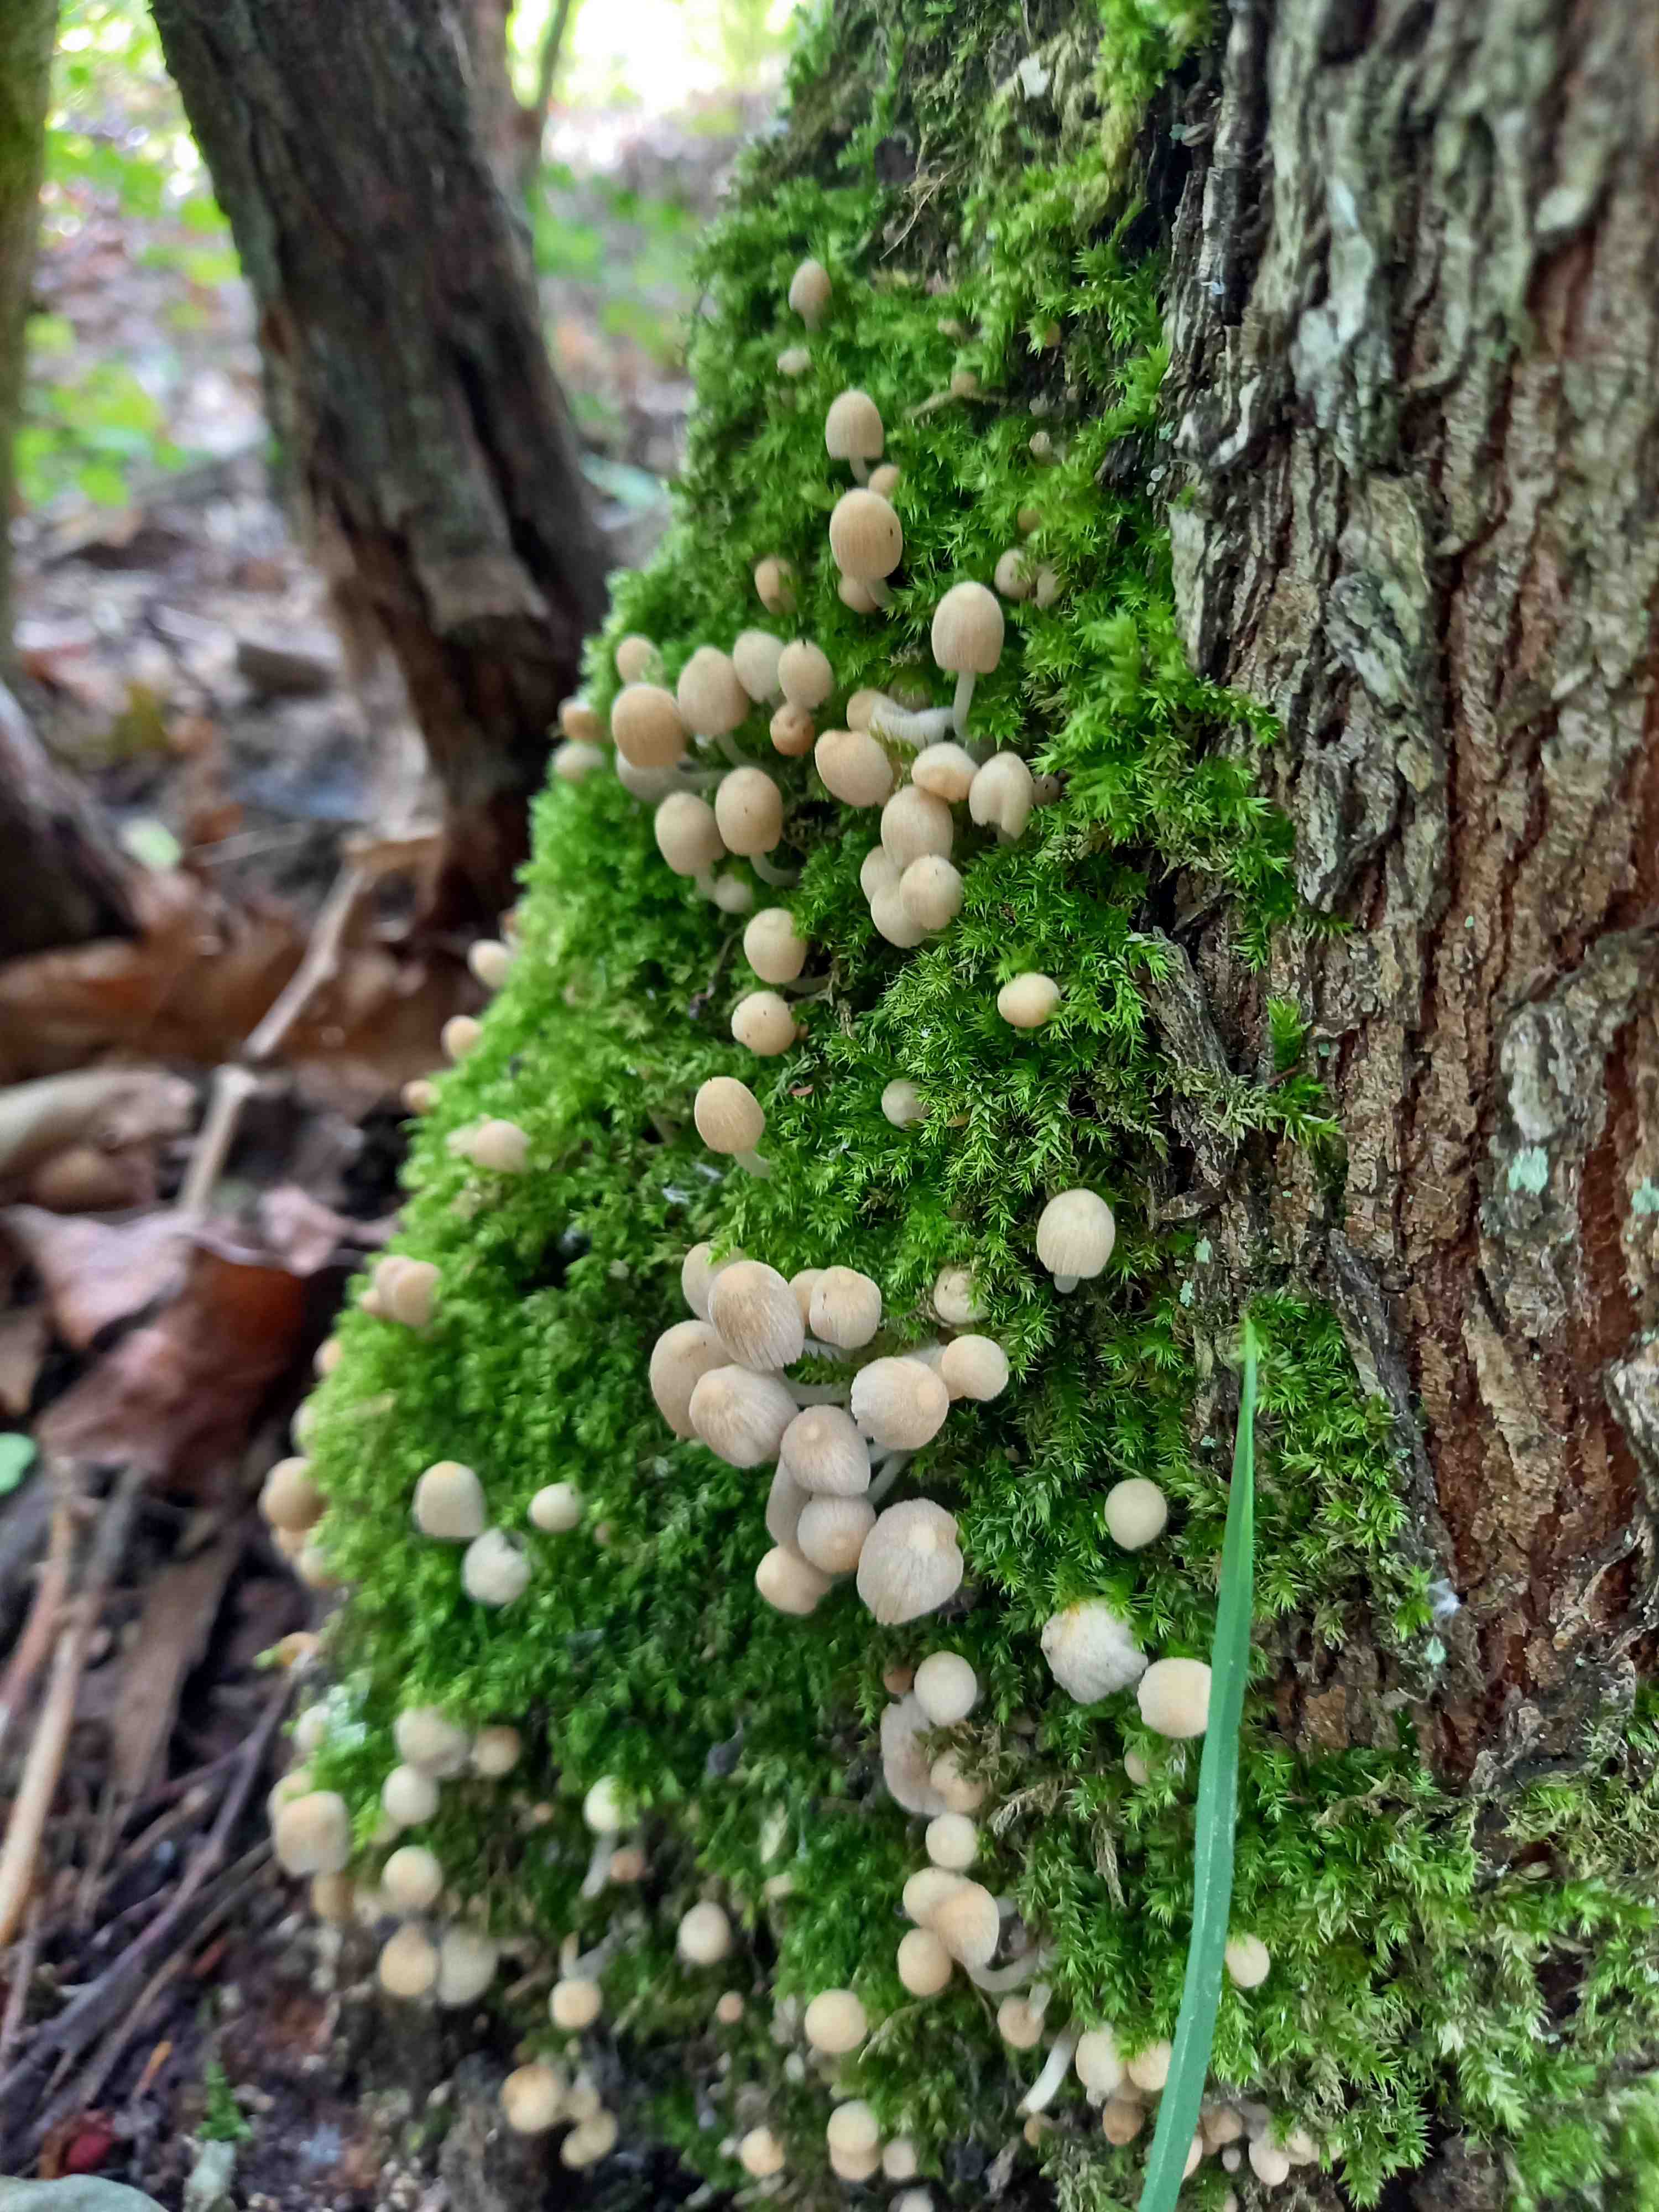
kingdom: Fungi
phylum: Basidiomycota
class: Agaricomycetes
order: Agaricales
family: Psathyrellaceae
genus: Coprinellus
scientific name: Coprinellus disseminatus
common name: bredsået blækhat
